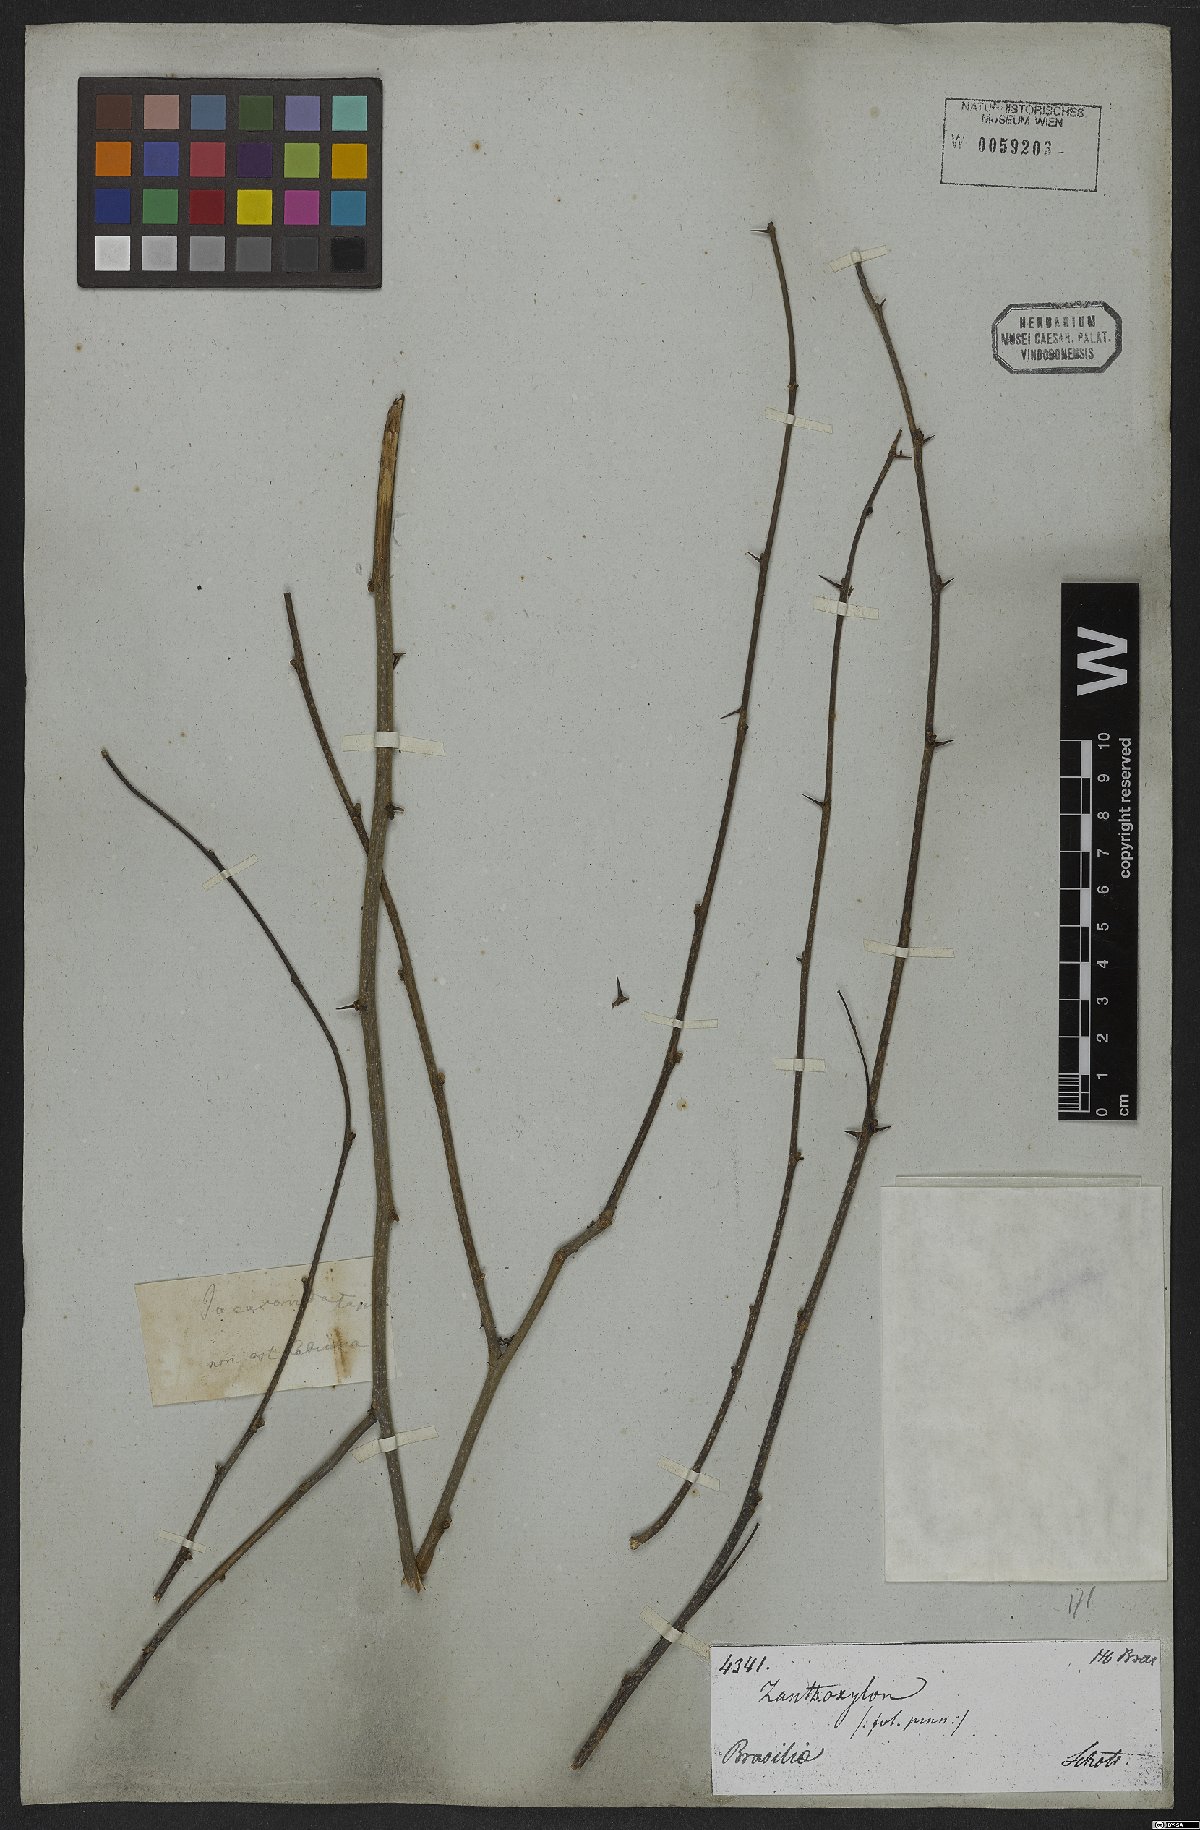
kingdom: Plantae
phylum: Tracheophyta
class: Magnoliopsida
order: Sapindales
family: Rutaceae
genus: Zanthoxylum
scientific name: Zanthoxylum
